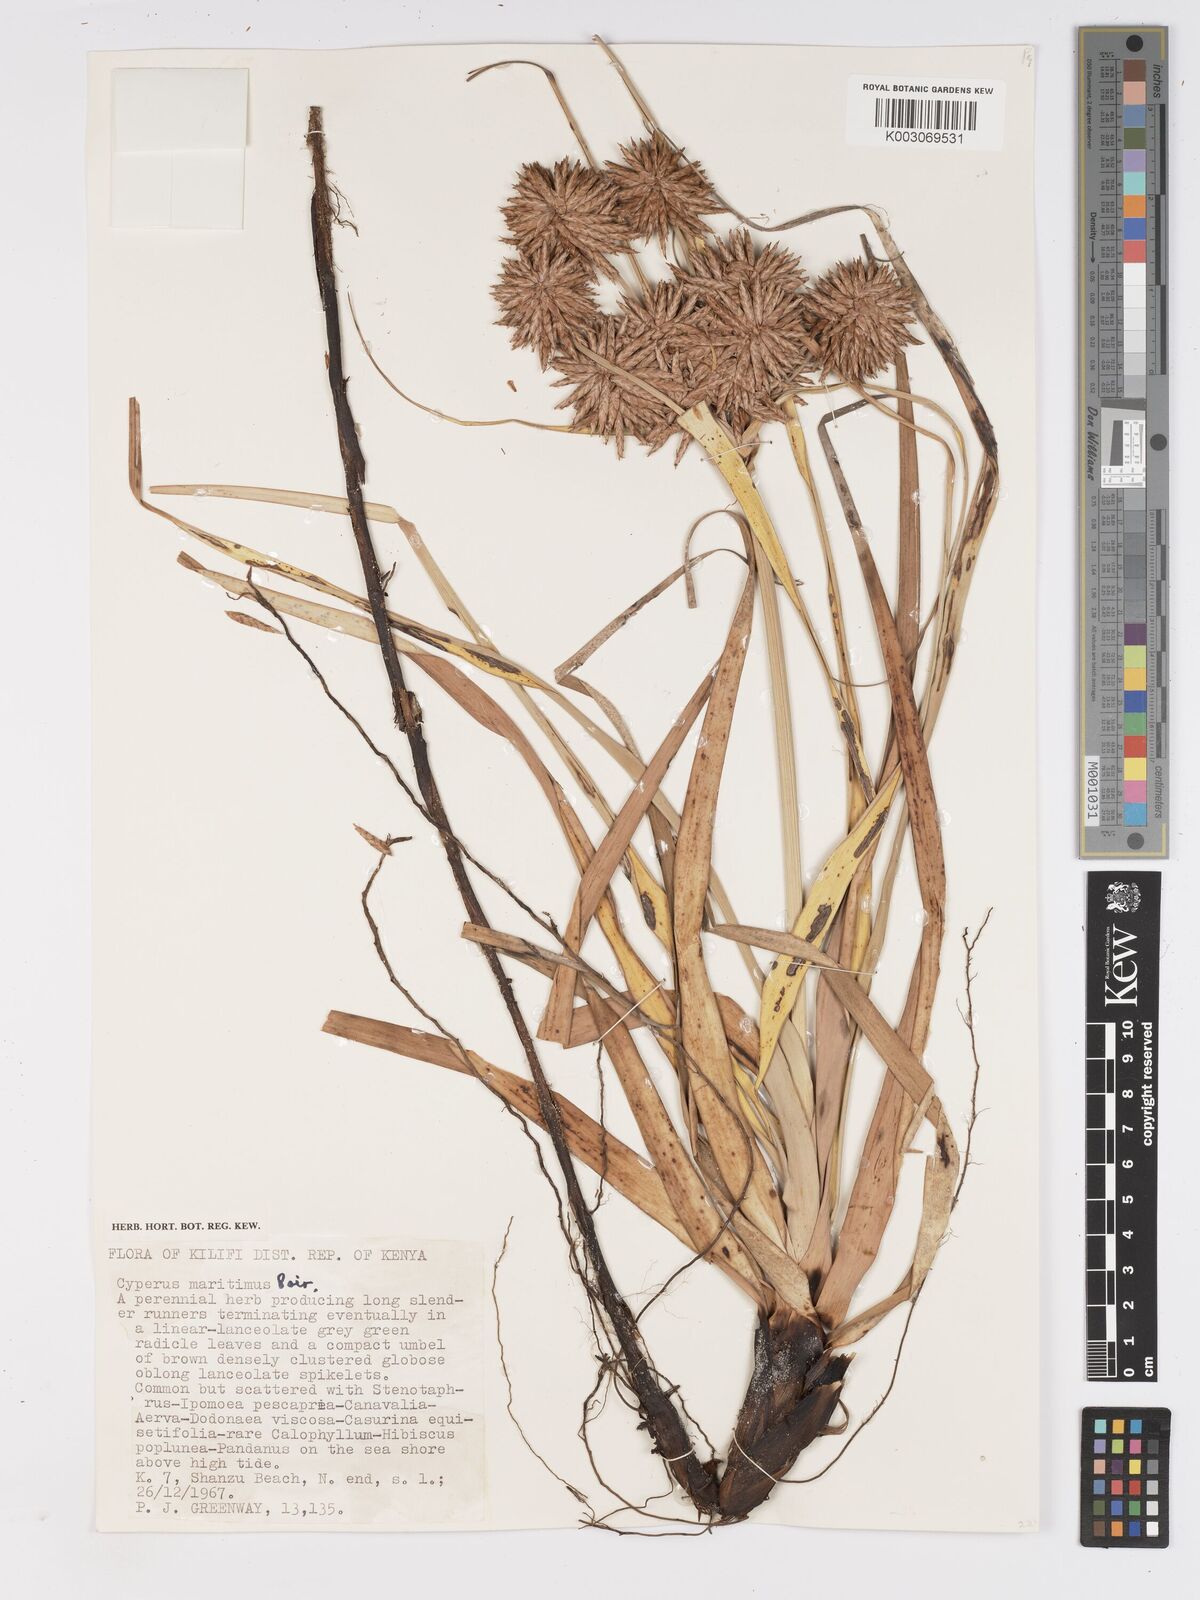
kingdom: Plantae
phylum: Tracheophyta
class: Liliopsida
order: Poales
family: Cyperaceae
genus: Cyperus
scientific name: Cyperus crassipes
